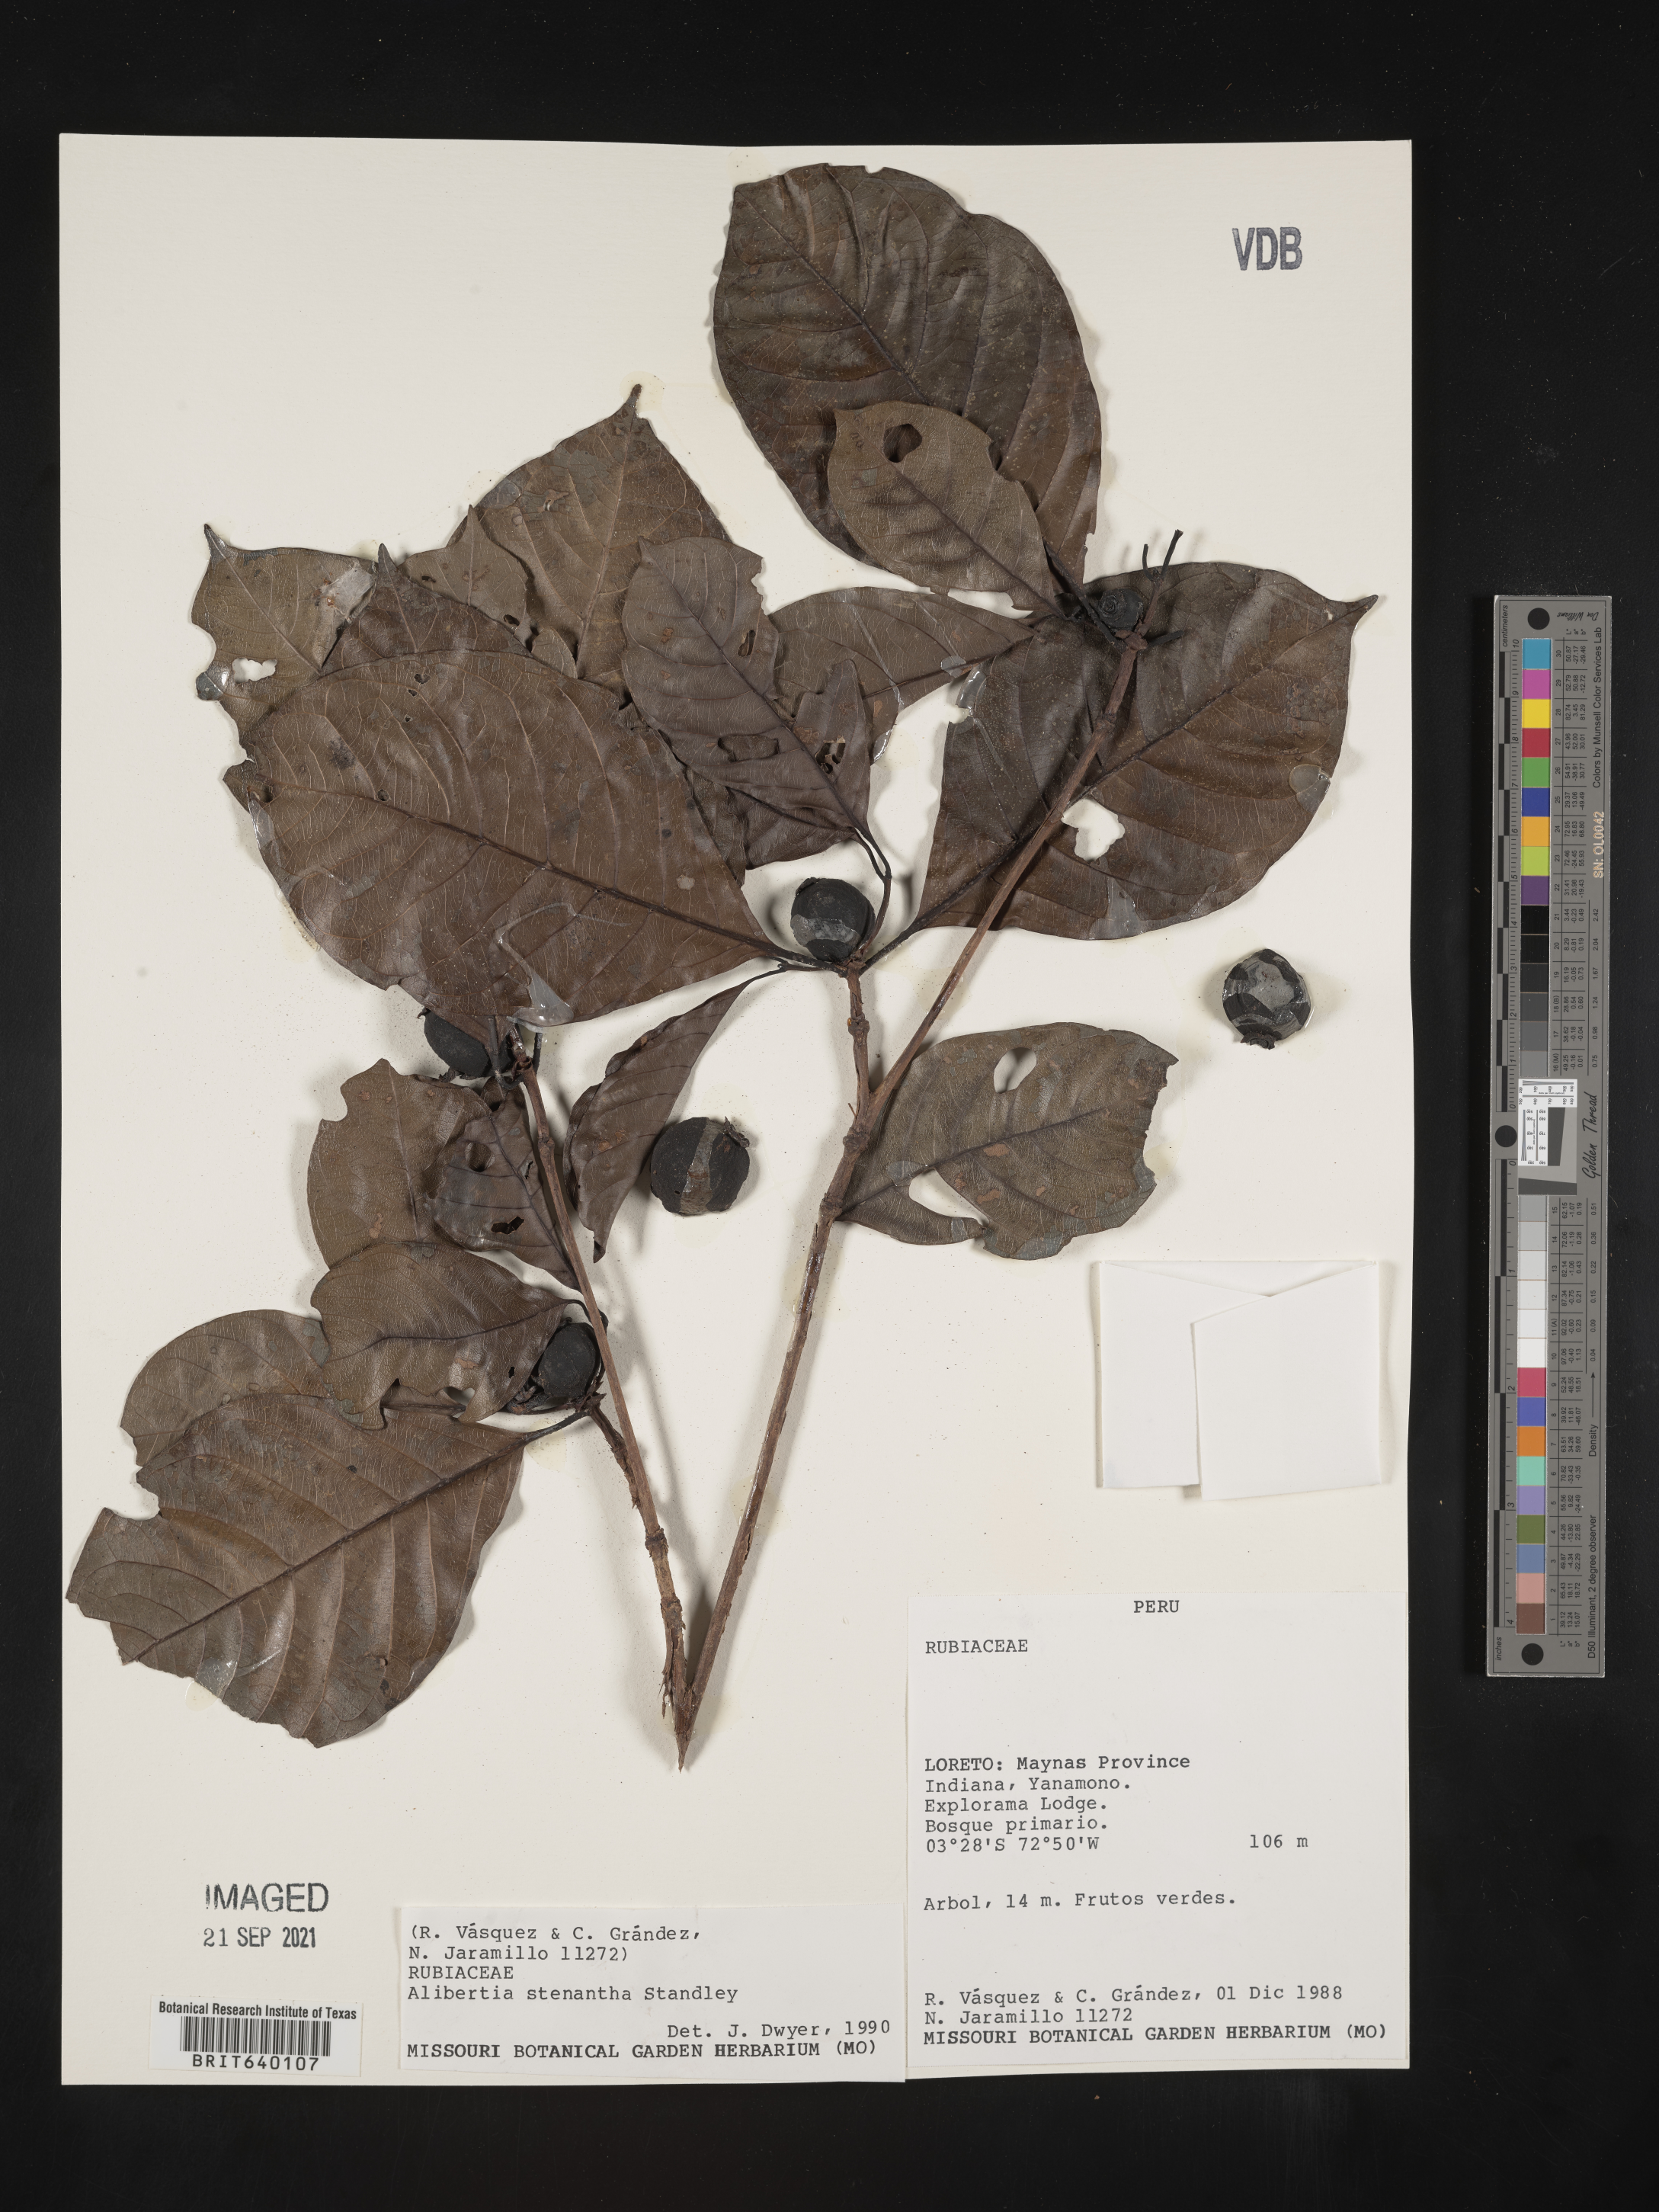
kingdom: Plantae
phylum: Tracheophyta
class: Magnoliopsida
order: Gentianales
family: Rubiaceae
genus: Alibertia
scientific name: Alibertia
